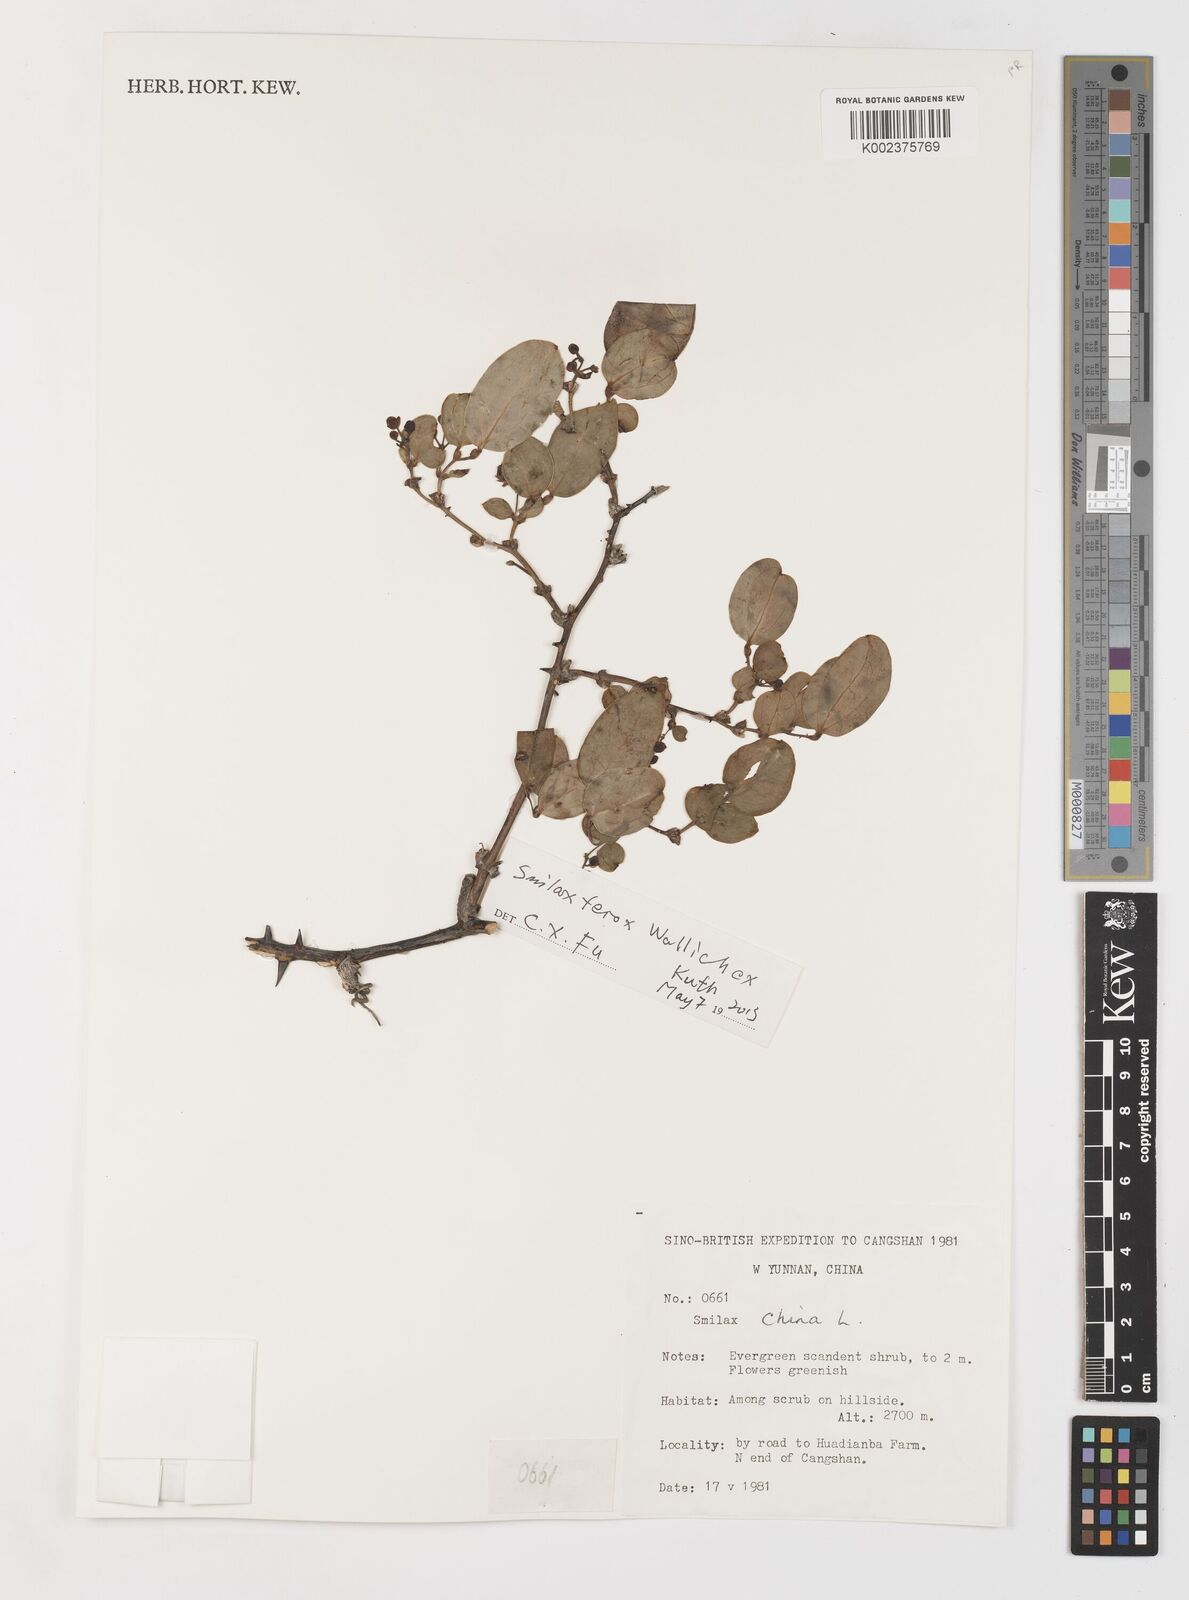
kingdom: Plantae
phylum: Tracheophyta
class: Liliopsida
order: Liliales
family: Smilacaceae
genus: Smilax
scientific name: Smilax china
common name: Chinaroot
